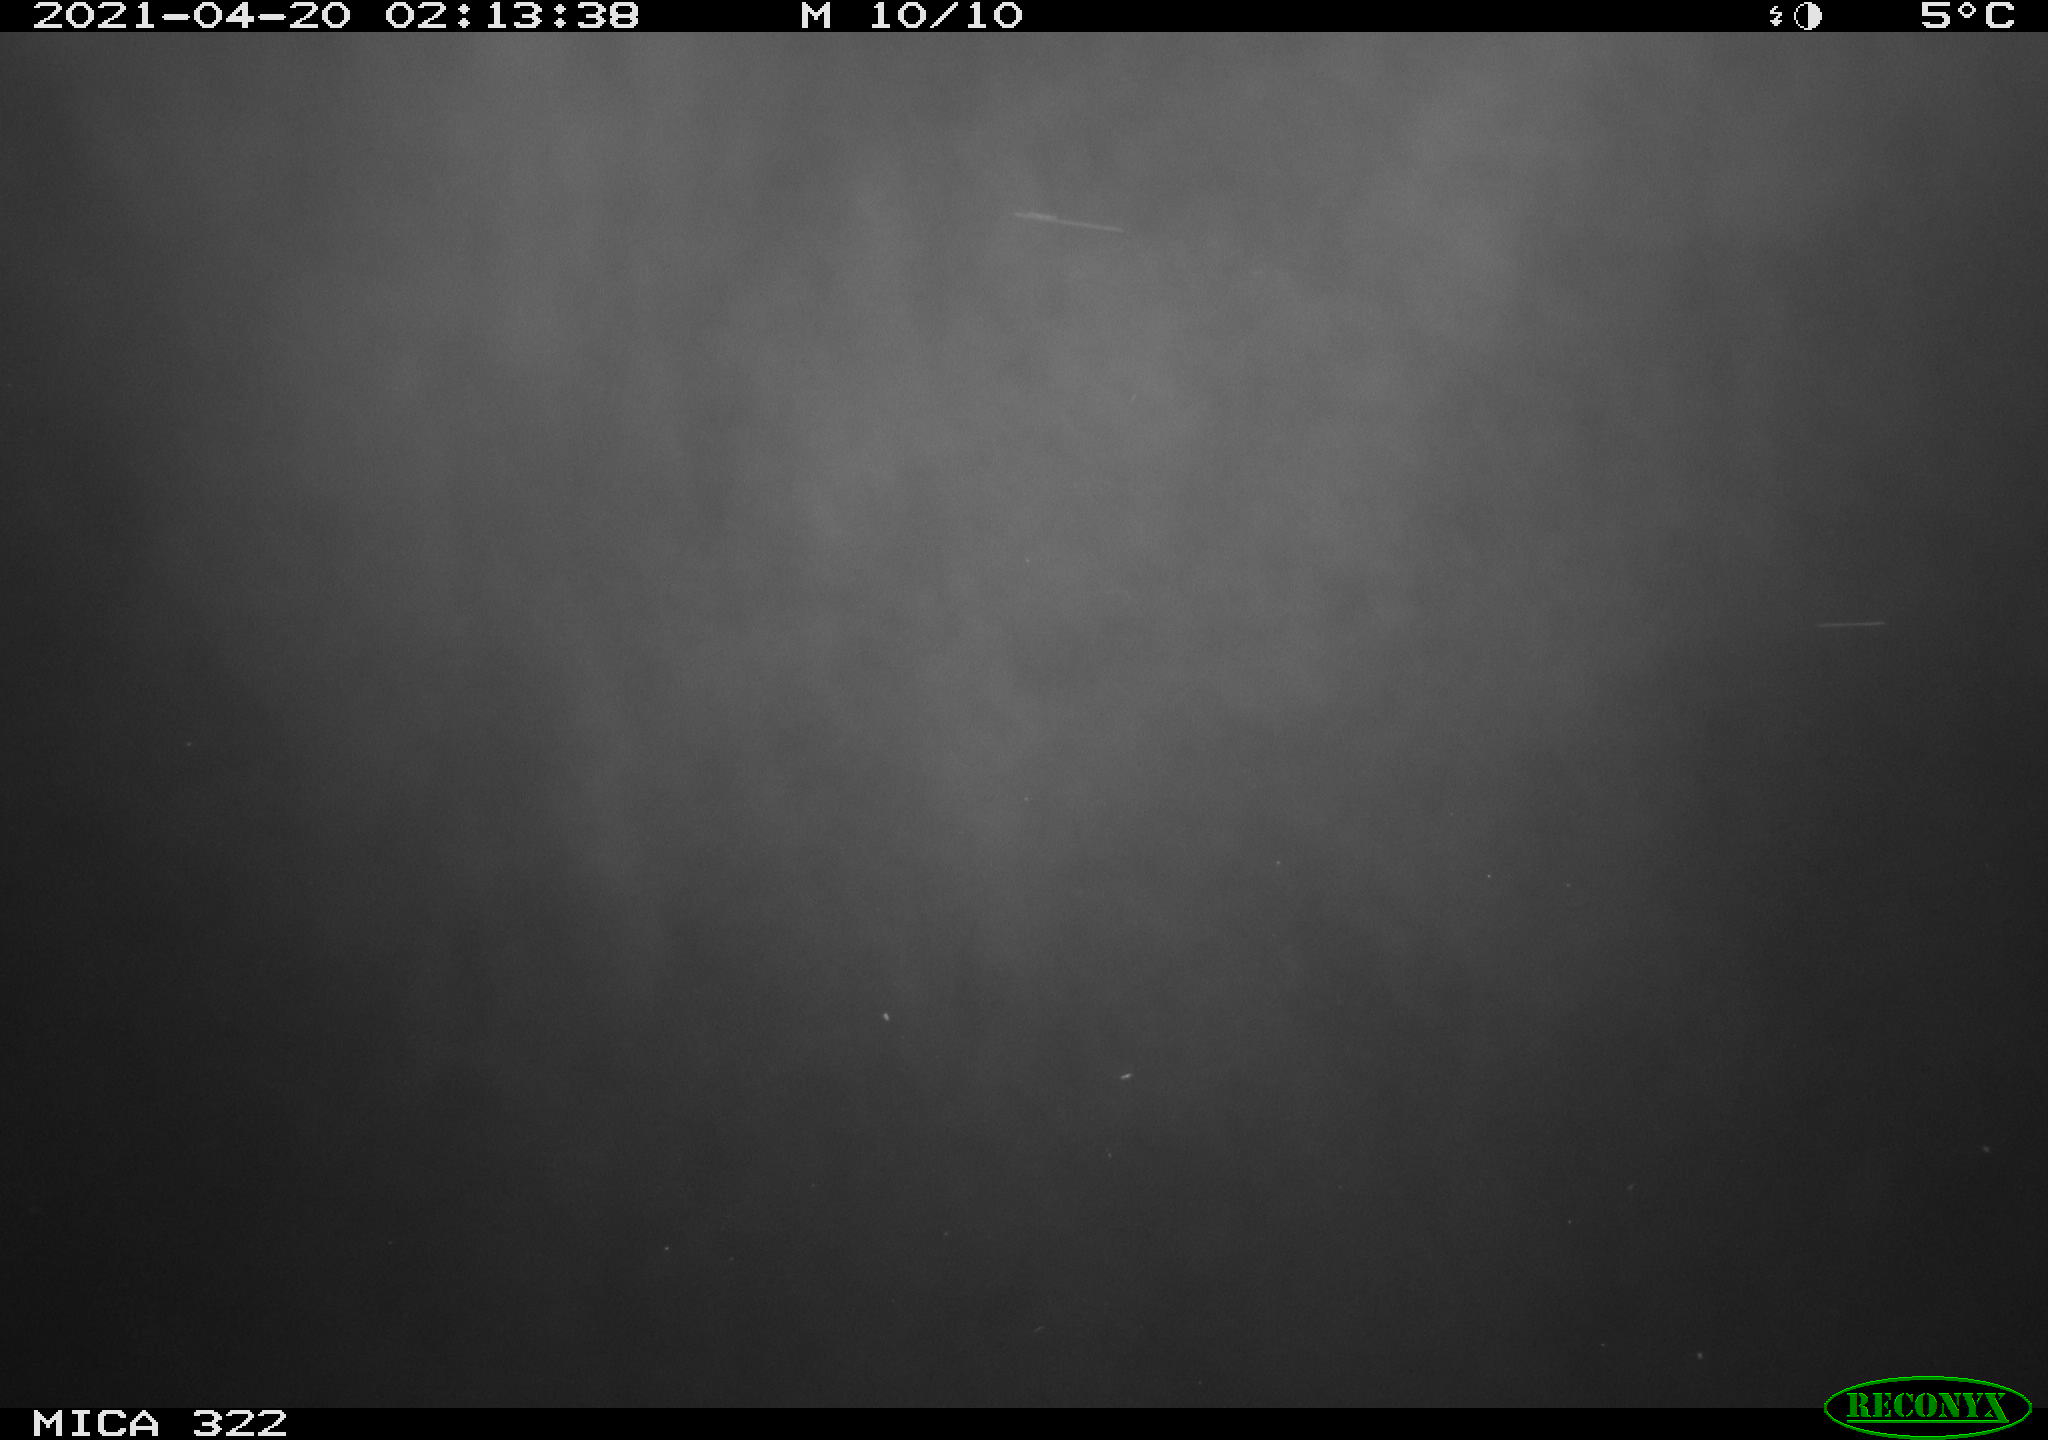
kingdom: Animalia
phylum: Chordata
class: Aves
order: Anseriformes
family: Anatidae
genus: Anas
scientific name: Anas platyrhynchos
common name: Mallard
